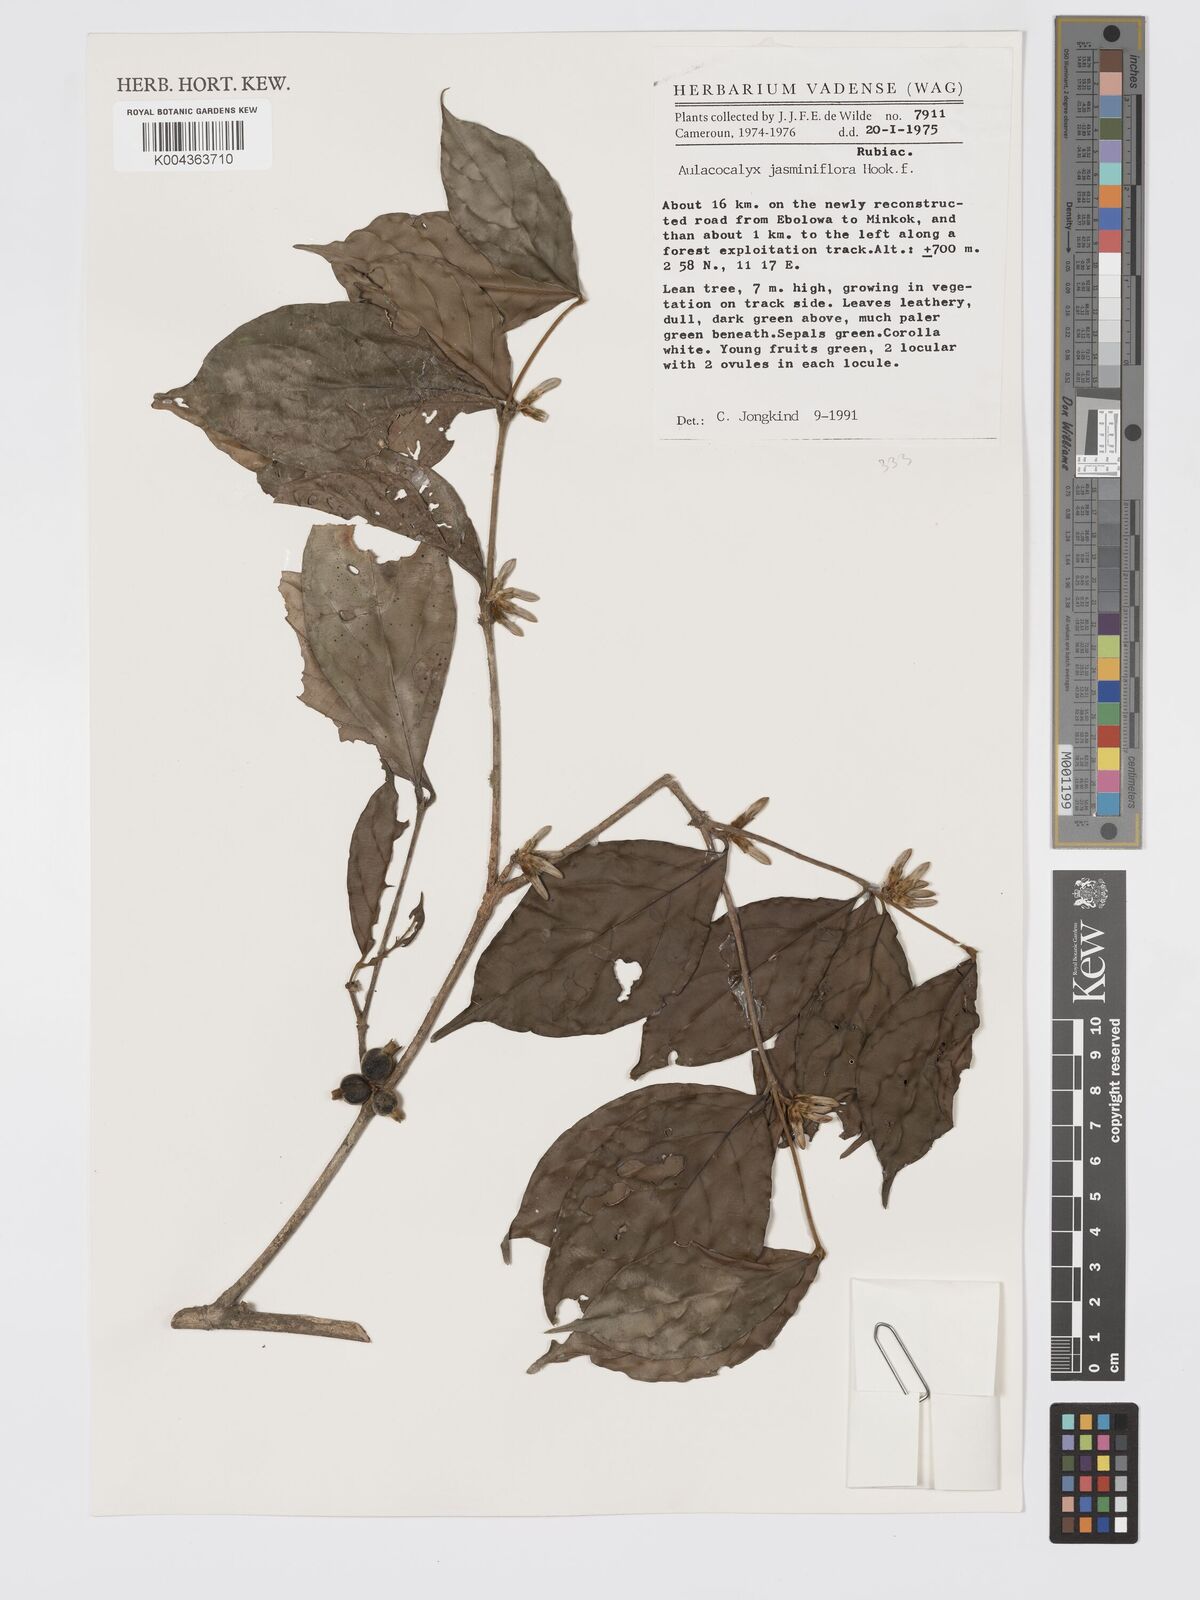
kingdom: Plantae
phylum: Tracheophyta
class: Magnoliopsida
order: Gentianales
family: Rubiaceae
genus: Aulacocalyx
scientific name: Aulacocalyx jasminiflora
